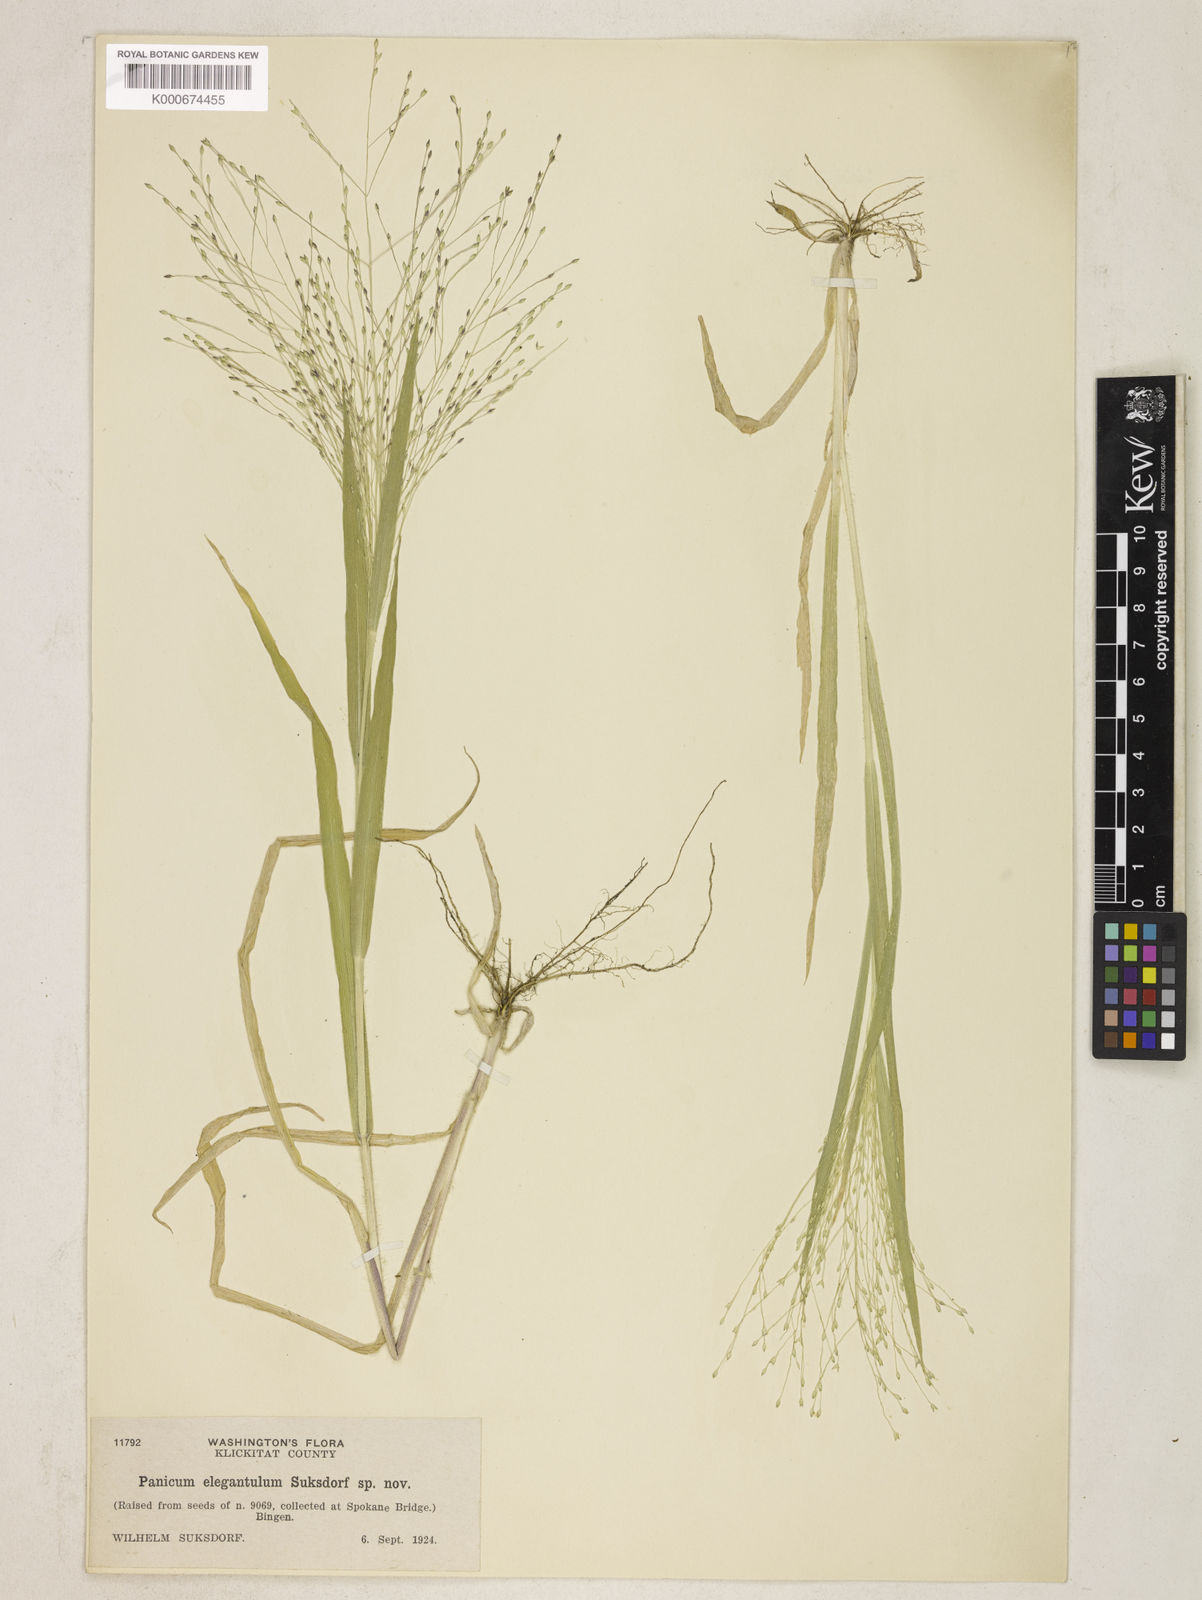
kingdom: Plantae
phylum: Tracheophyta
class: Liliopsida
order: Poales
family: Poaceae
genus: Panicum
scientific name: Panicum capillare
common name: Witch-grass
